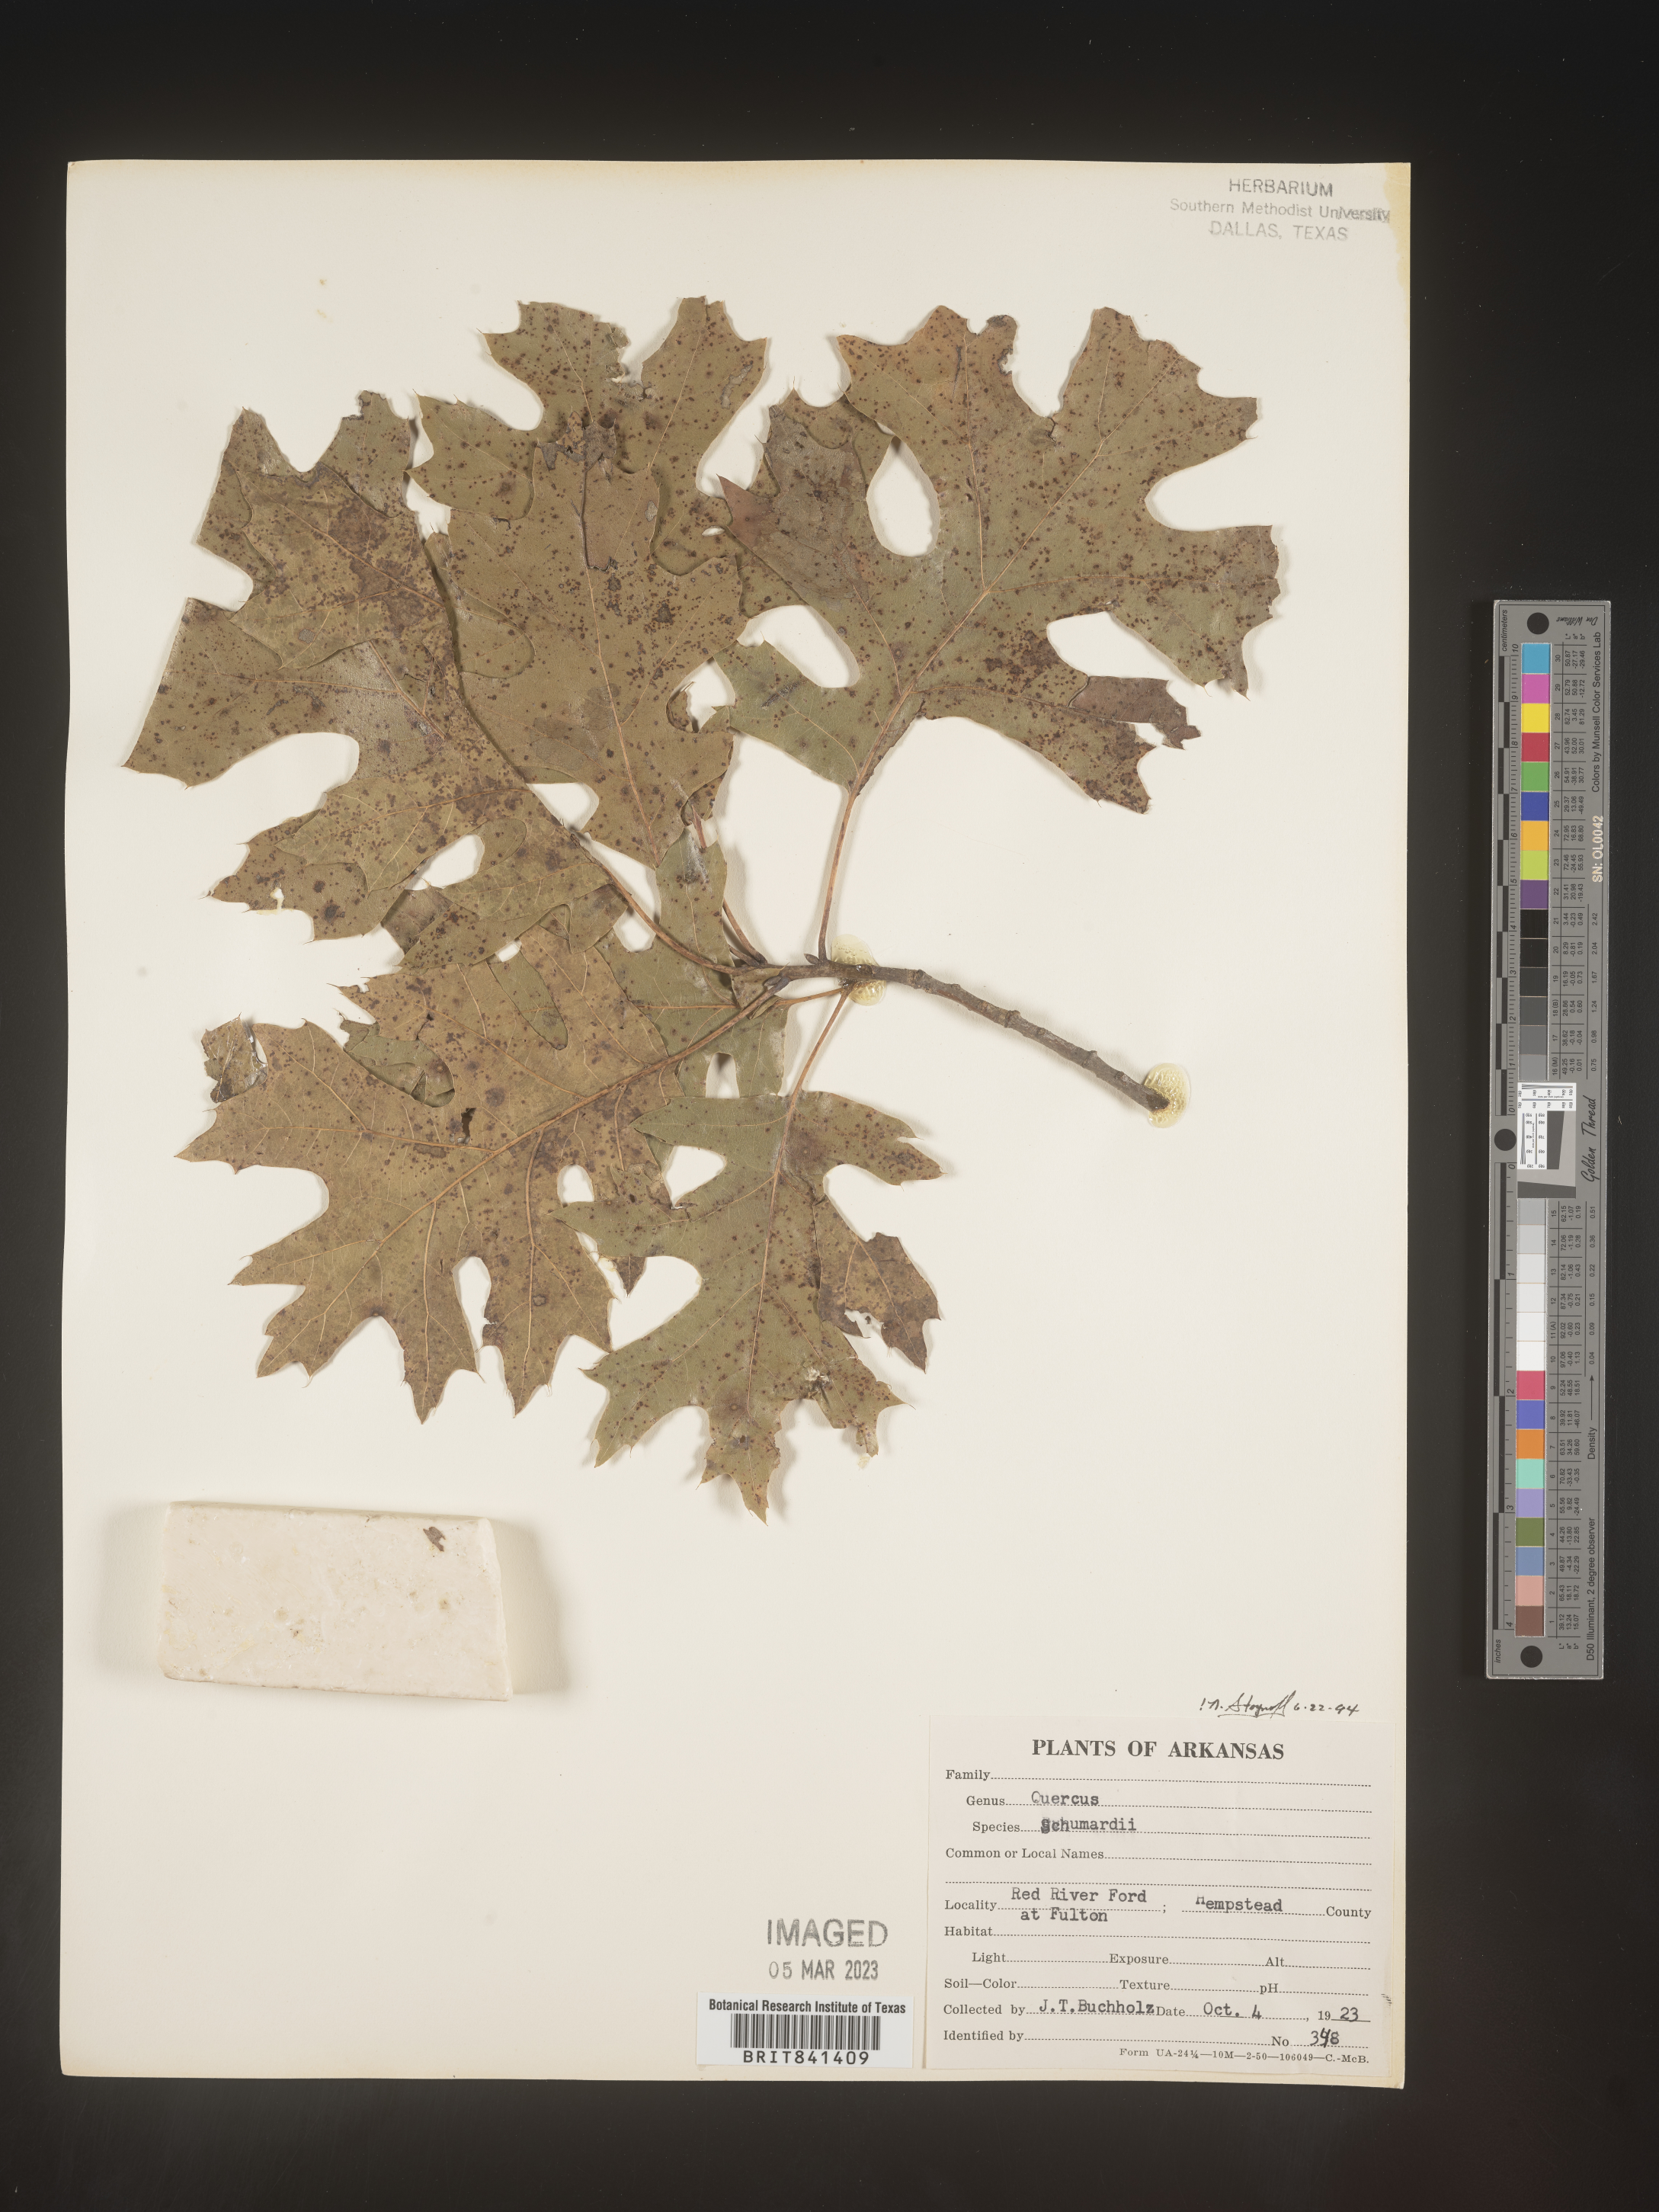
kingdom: Plantae
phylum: Tracheophyta
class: Magnoliopsida
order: Fagales
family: Fagaceae
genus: Quercus
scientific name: Quercus shumardii
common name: Shumard oak
